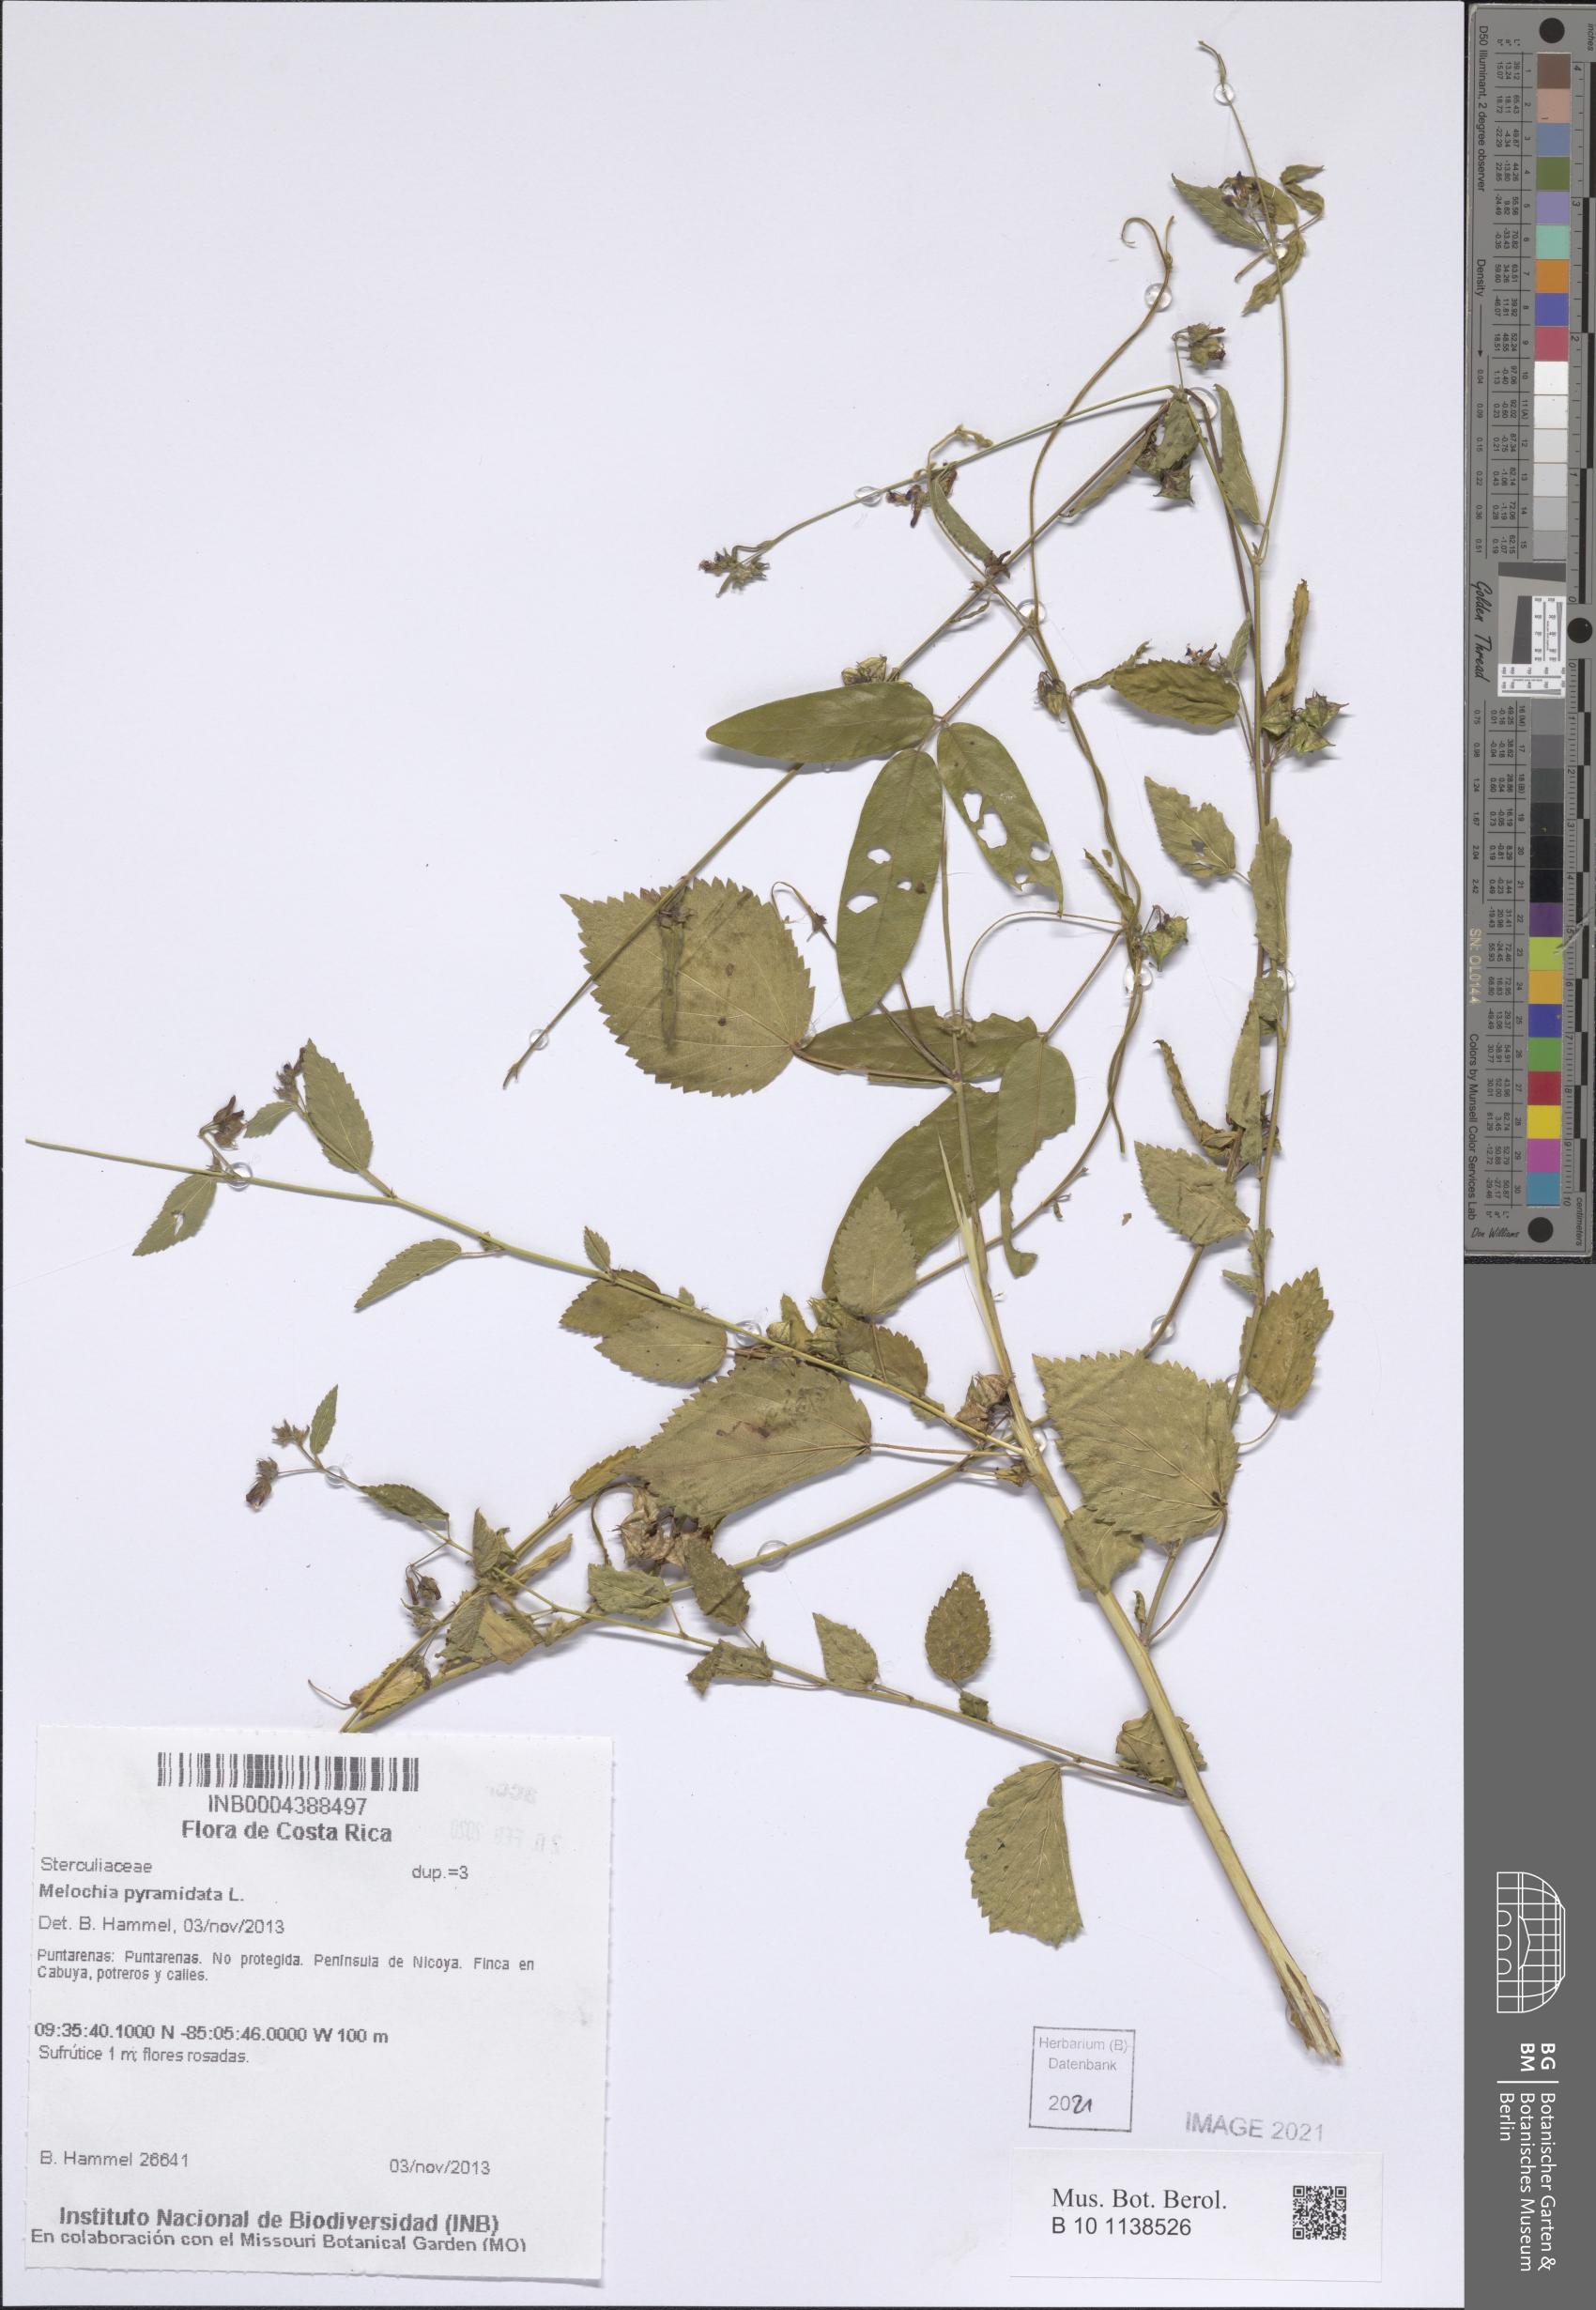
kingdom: Plantae
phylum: Tracheophyta
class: Magnoliopsida
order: Malvales
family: Malvaceae
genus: Melochia
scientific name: Melochia pyramidata
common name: Pyramidflower
